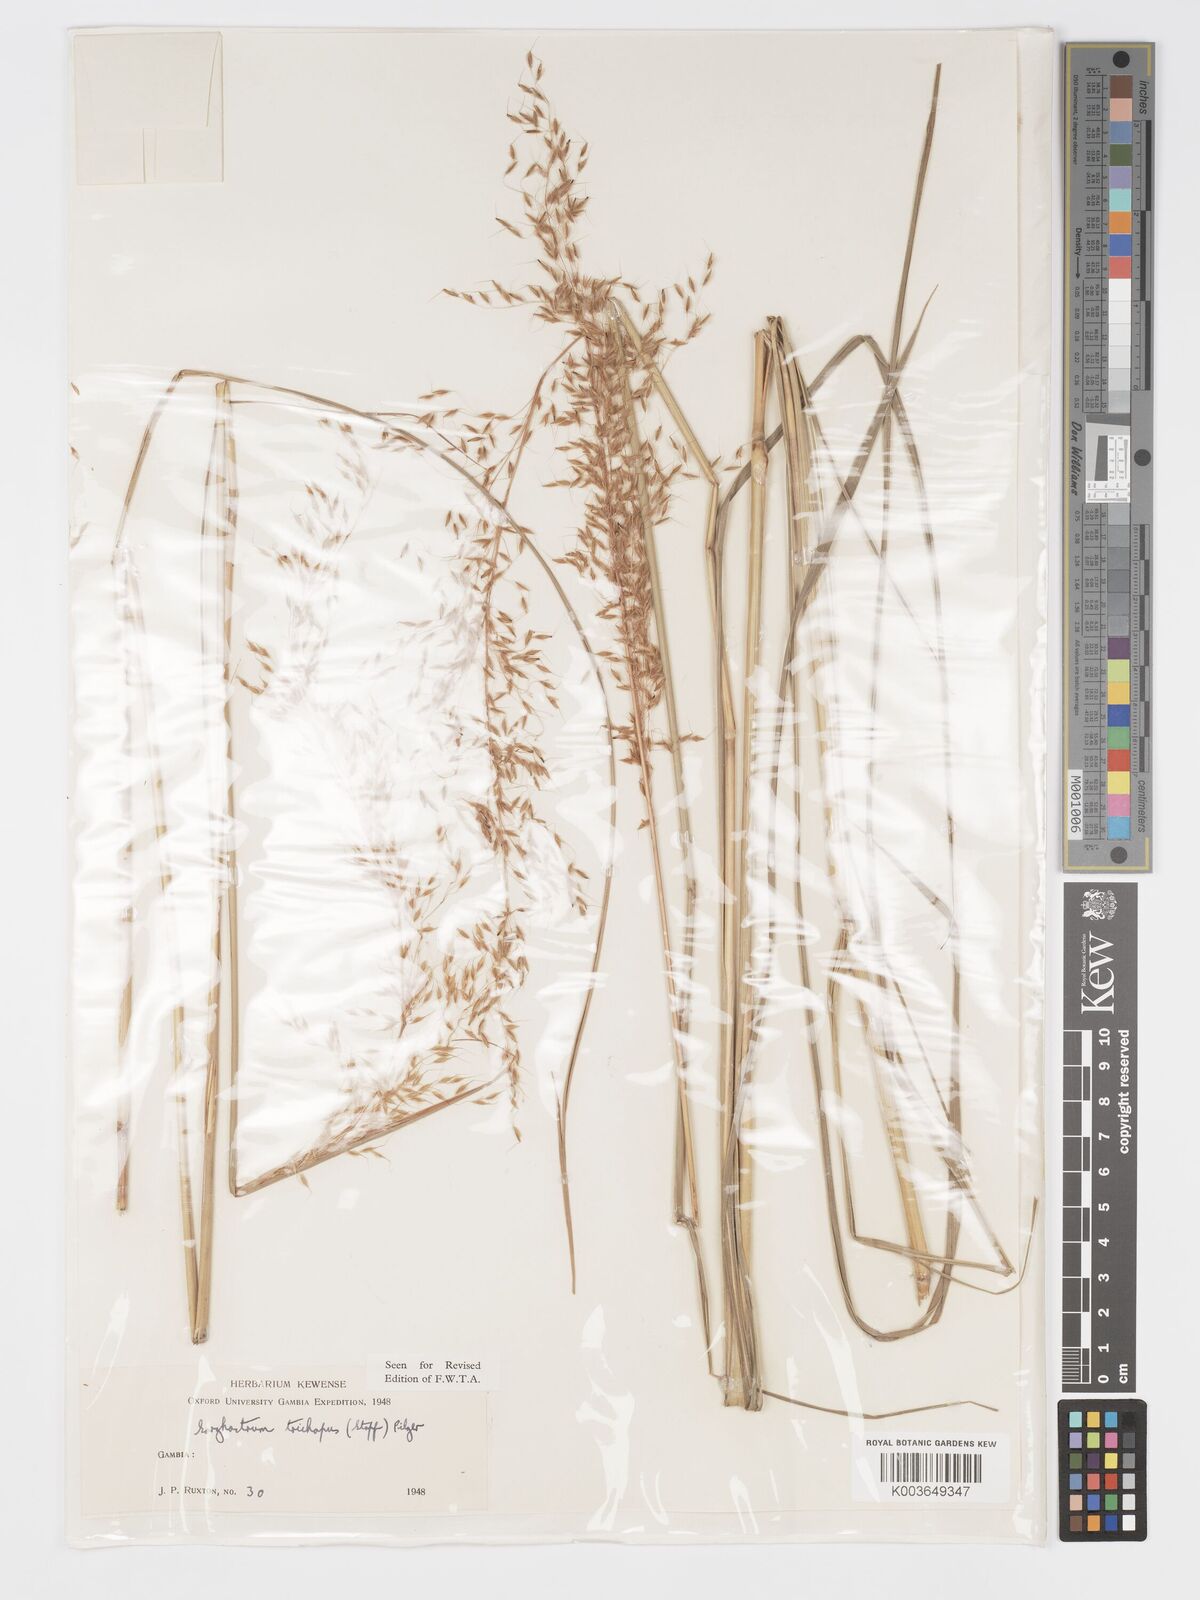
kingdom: Plantae
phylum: Tracheophyta
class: Liliopsida
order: Poales
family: Poaceae
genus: Sorghastrum
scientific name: Sorghastrum stipoides
